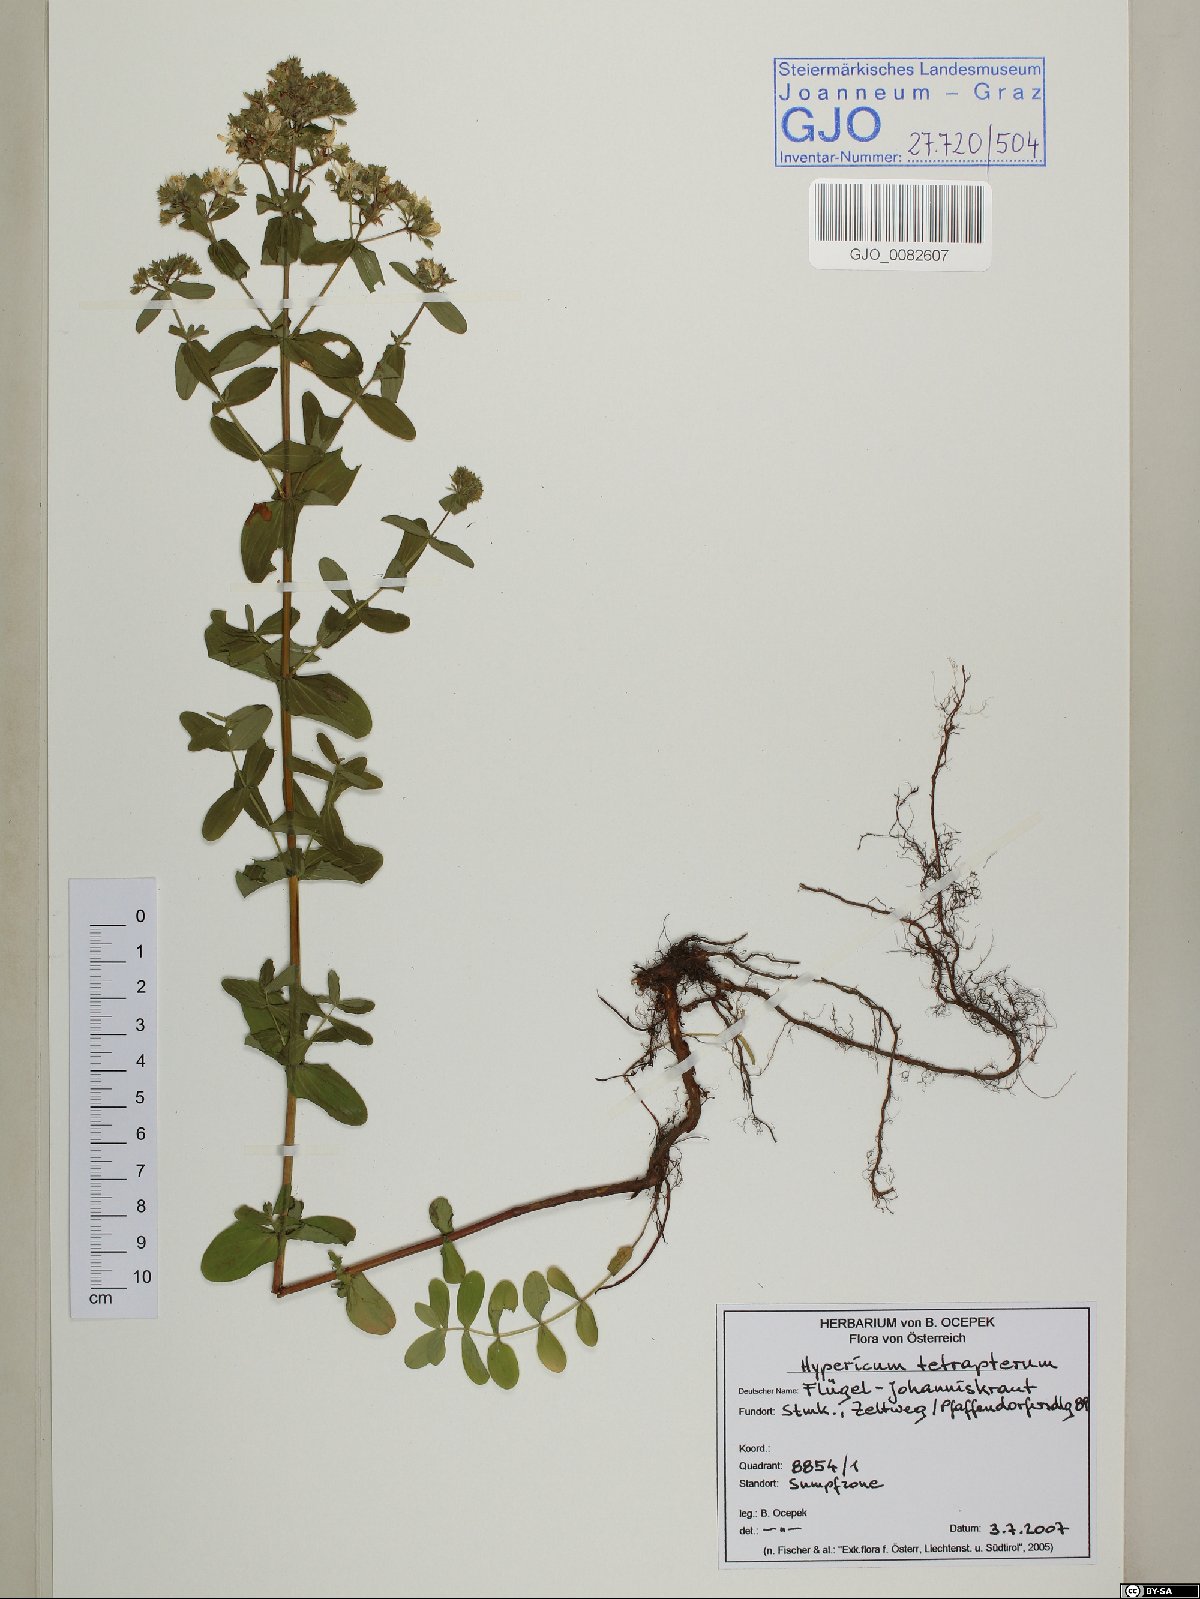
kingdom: Plantae
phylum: Tracheophyta
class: Magnoliopsida
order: Malpighiales
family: Hypericaceae
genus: Hypericum
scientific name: Hypericum tetrapterum
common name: Square-stalked st. john's-wort
